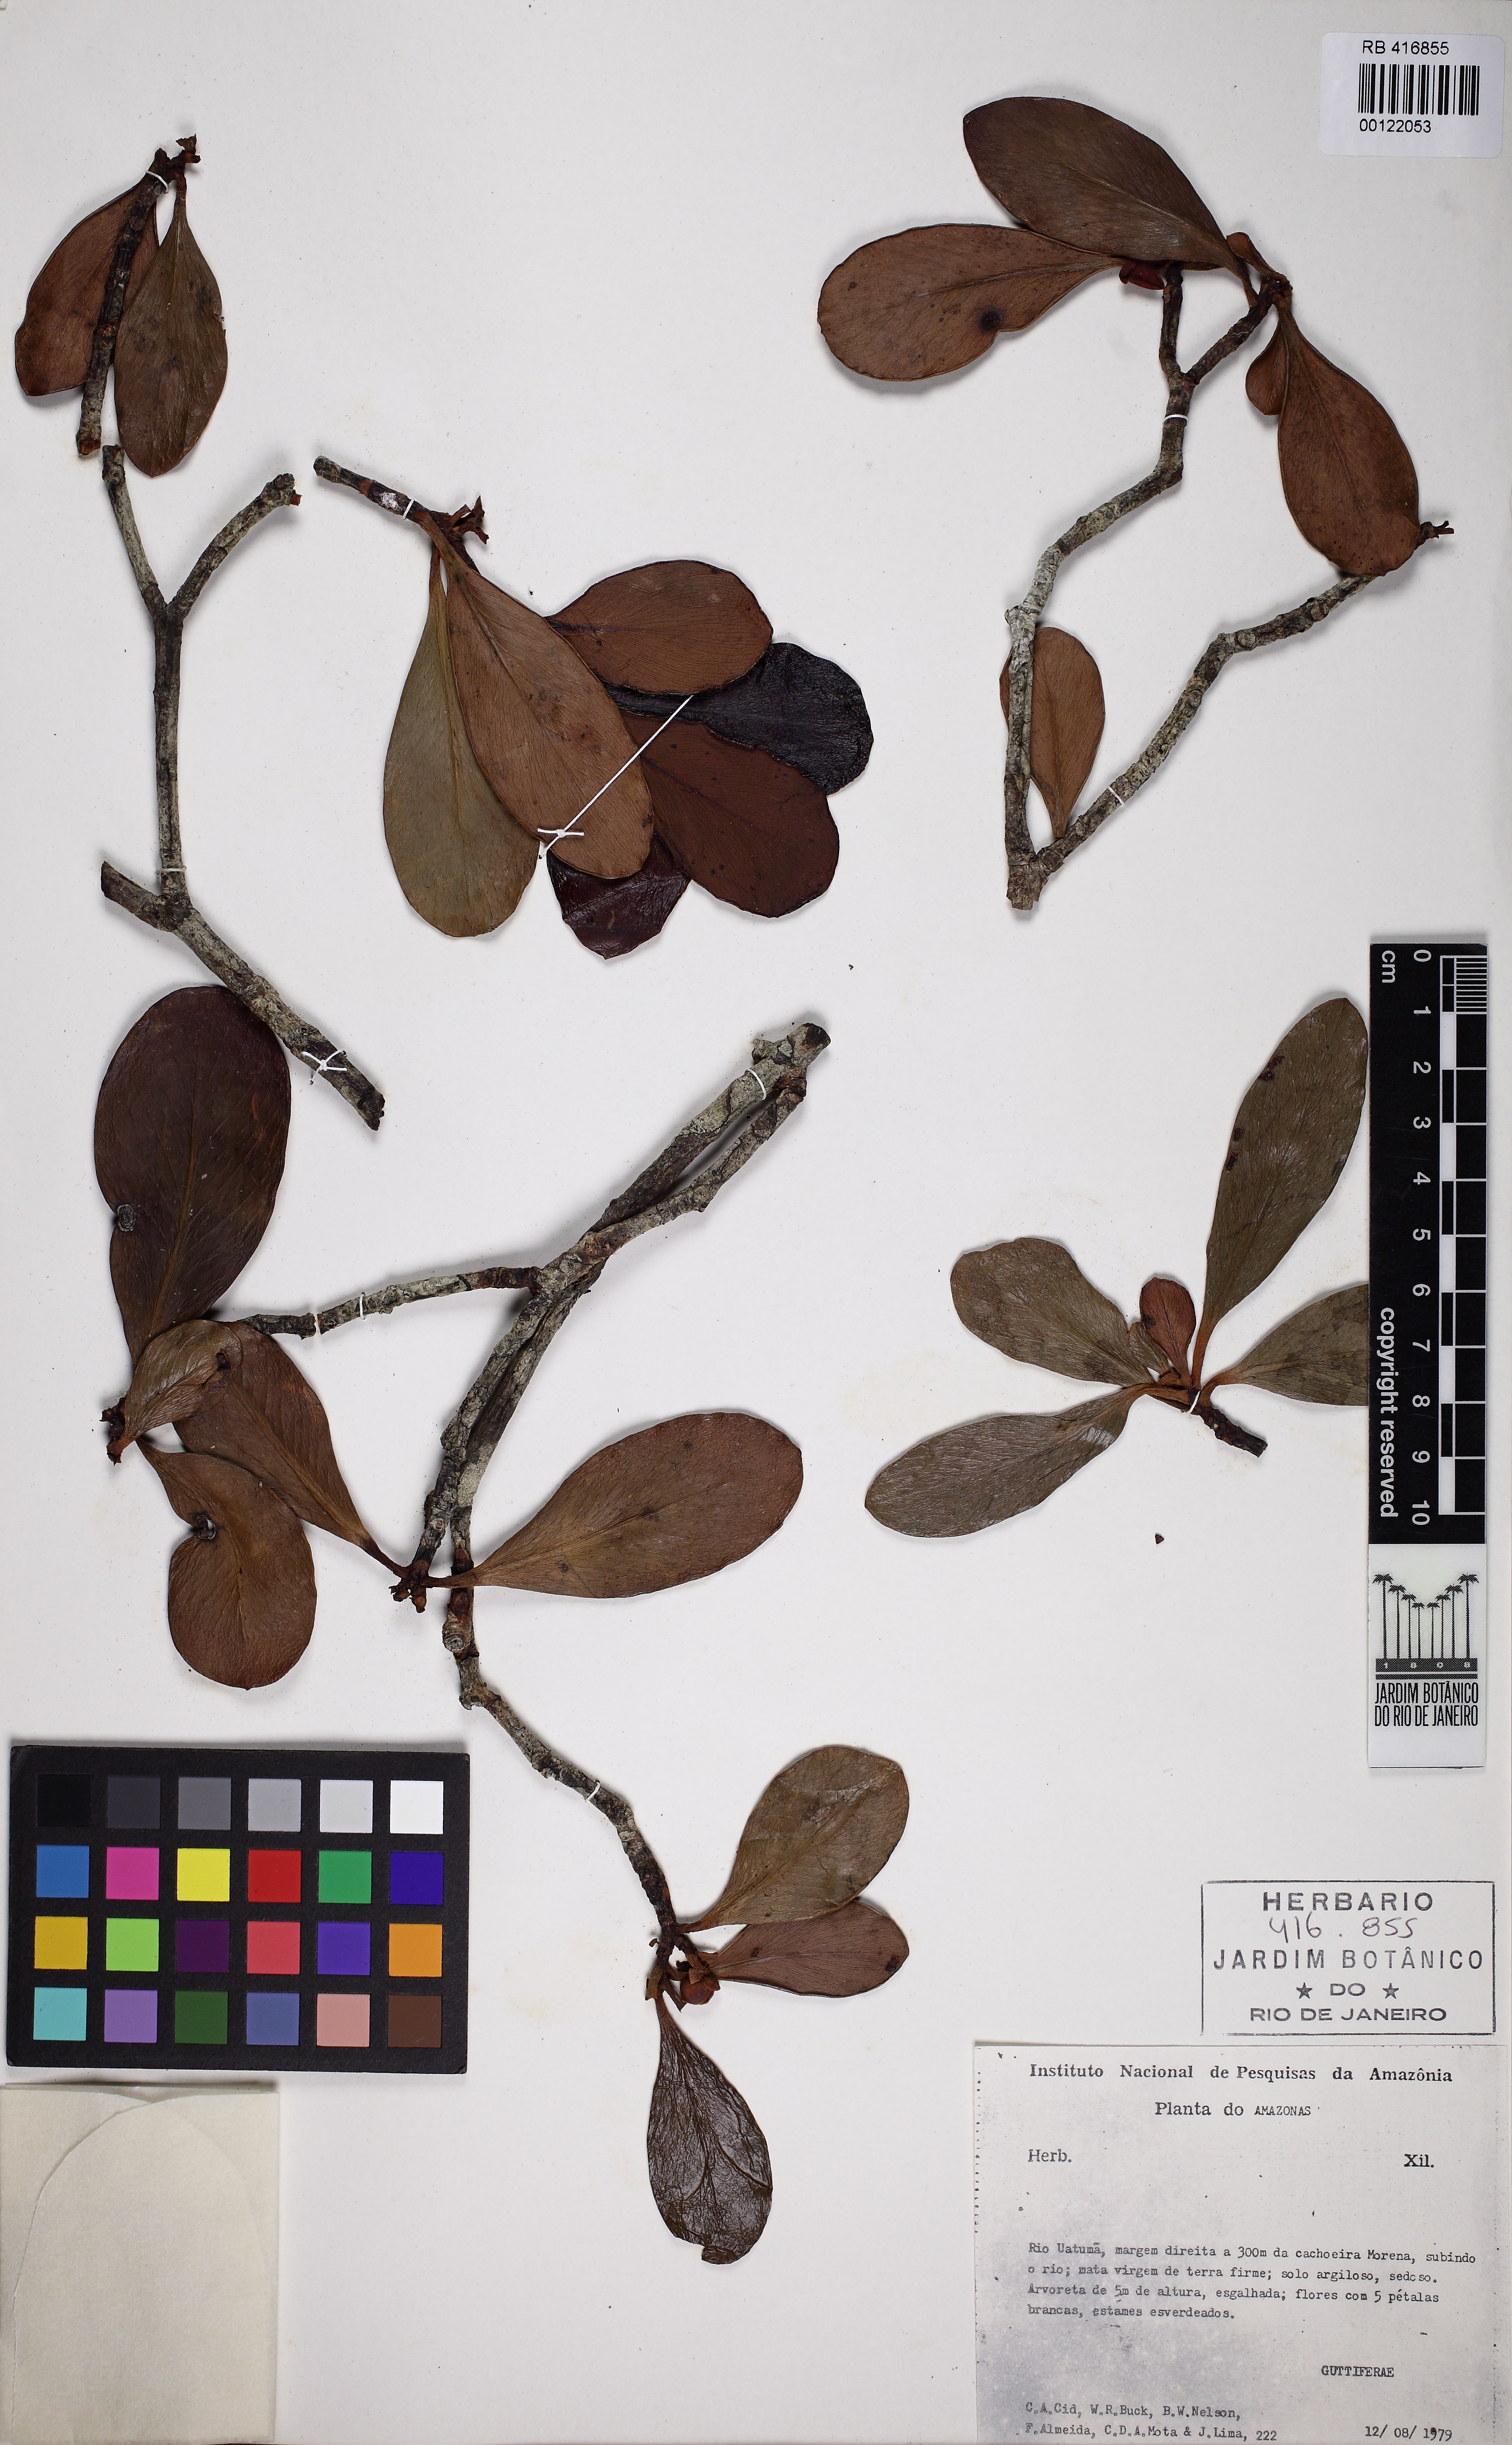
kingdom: Plantae
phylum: Tracheophyta
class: Magnoliopsida
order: Malpighiales
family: Clusiaceae
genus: Clusia
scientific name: Clusia microstemon
